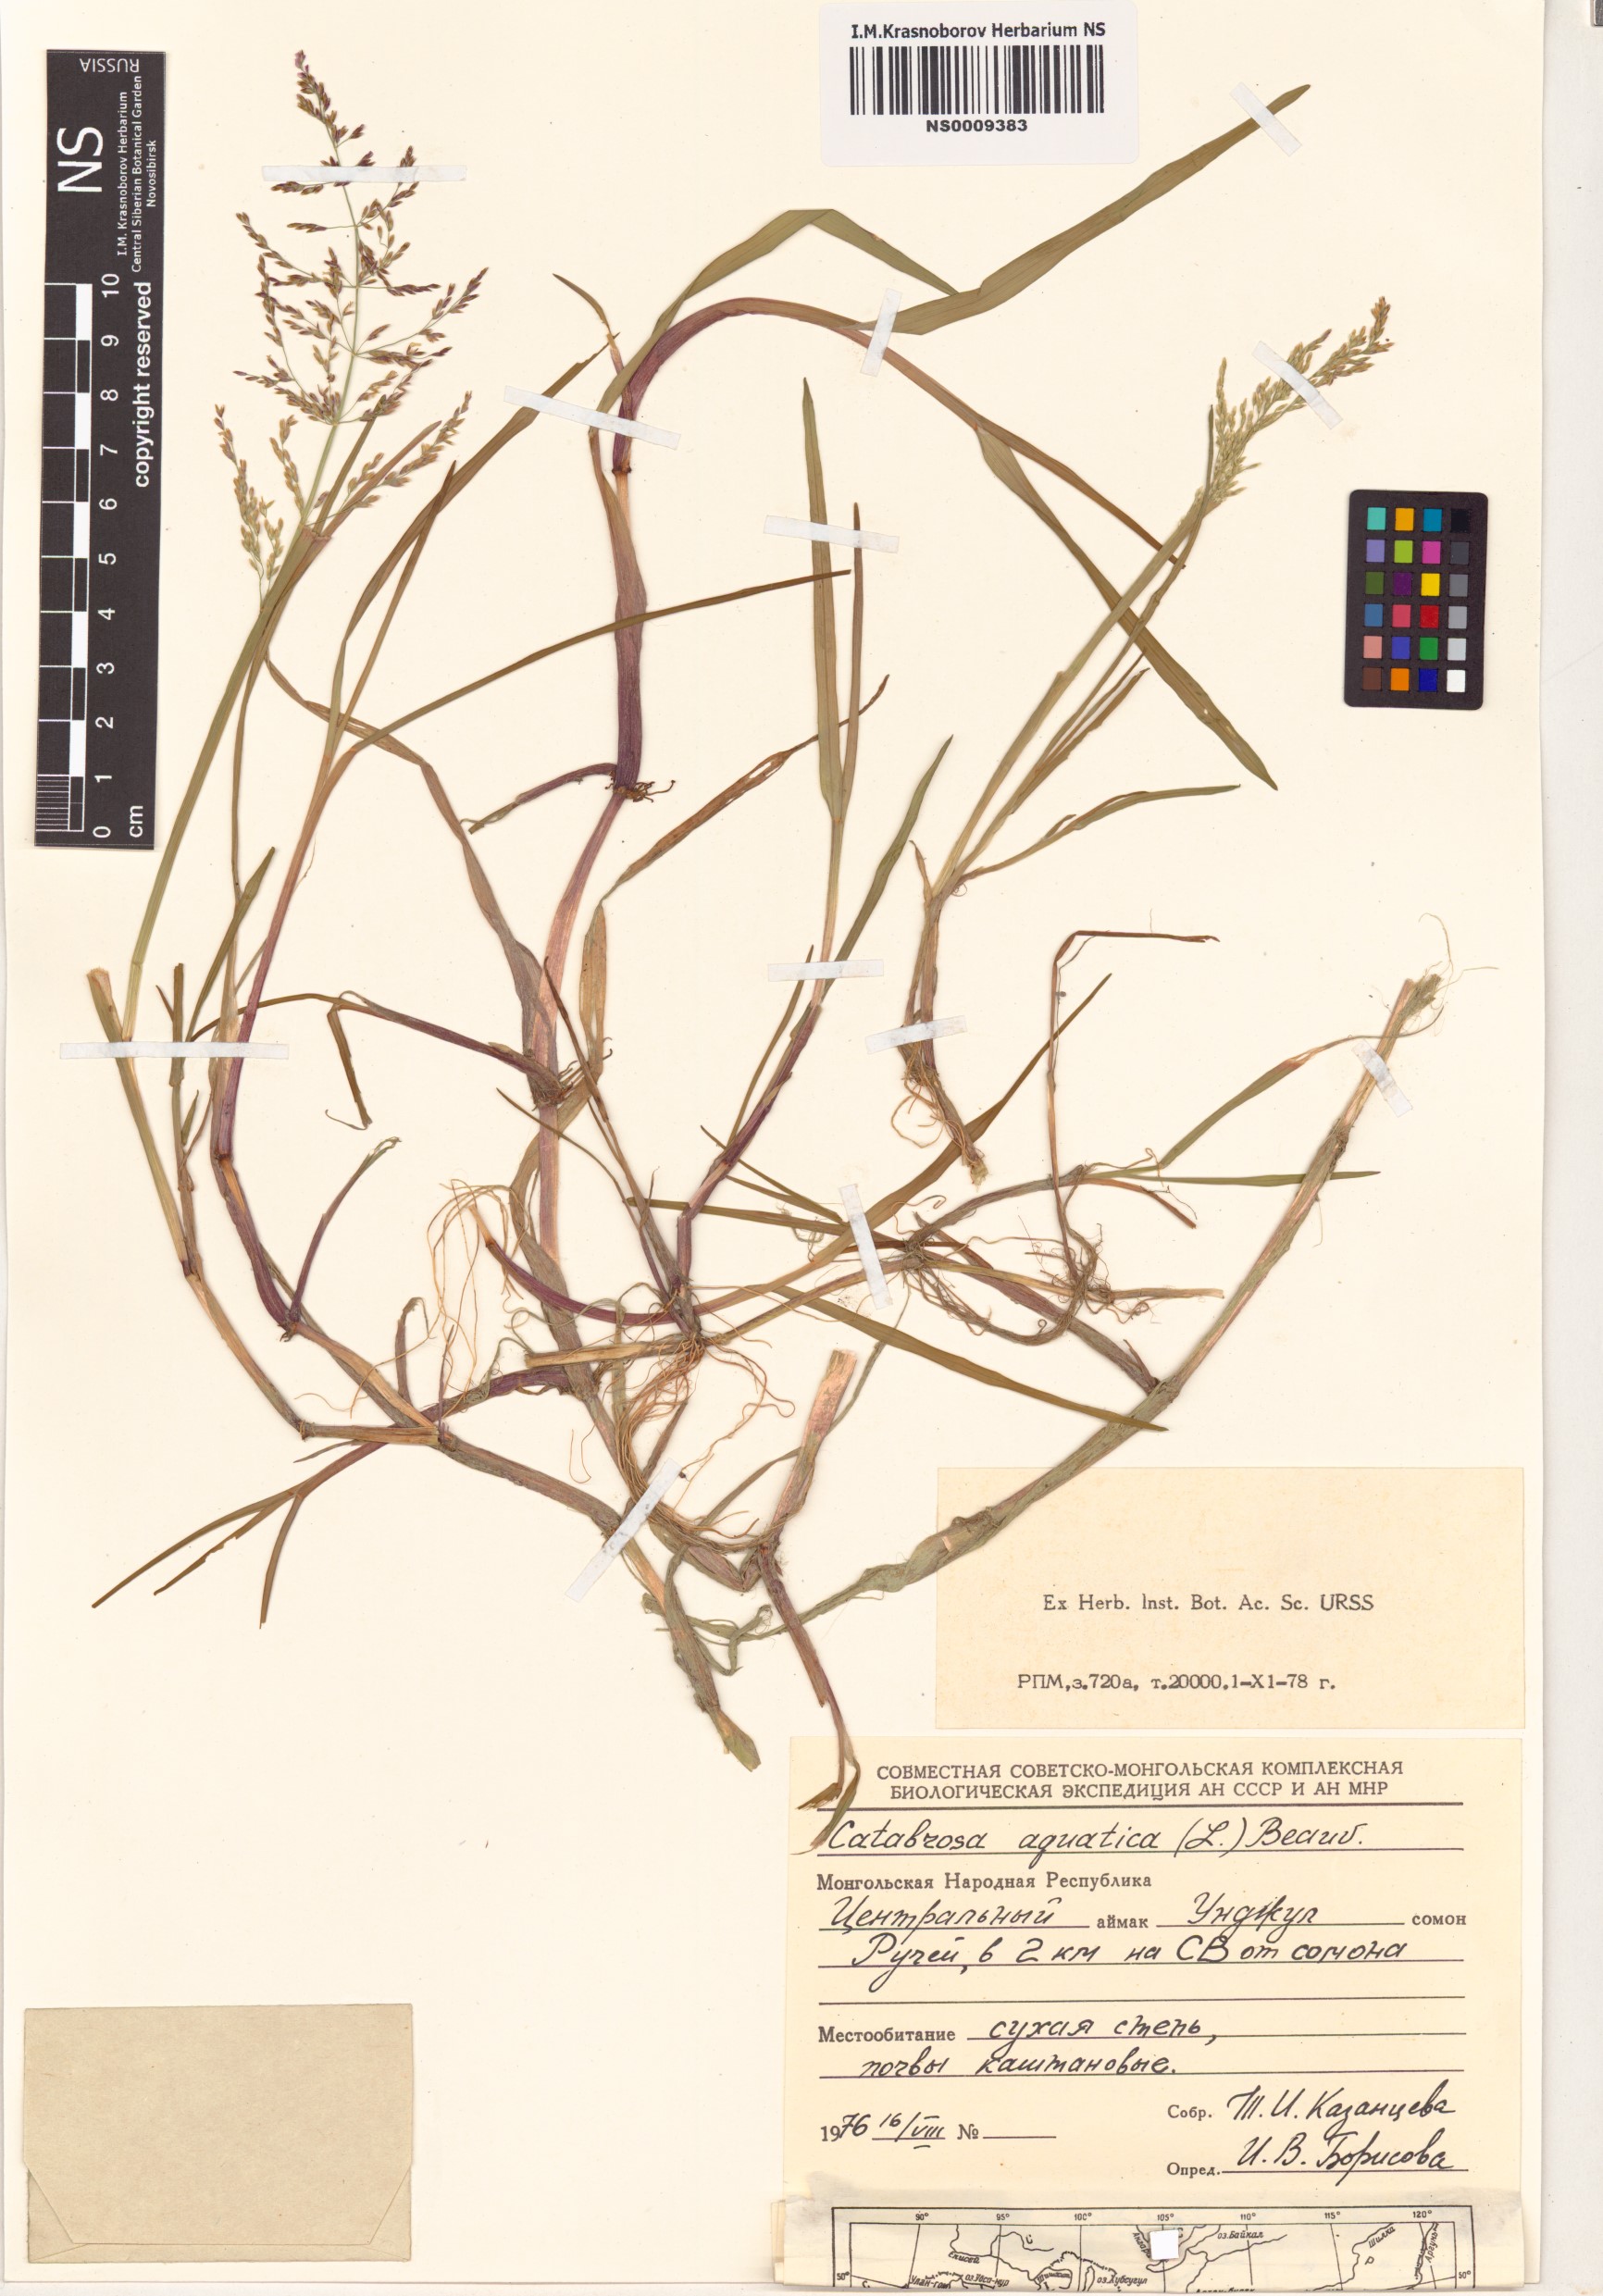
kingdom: Plantae
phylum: Tracheophyta
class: Liliopsida
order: Poales
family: Poaceae
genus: Catabrosa
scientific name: Catabrosa aquatica
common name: Whorl-grass
